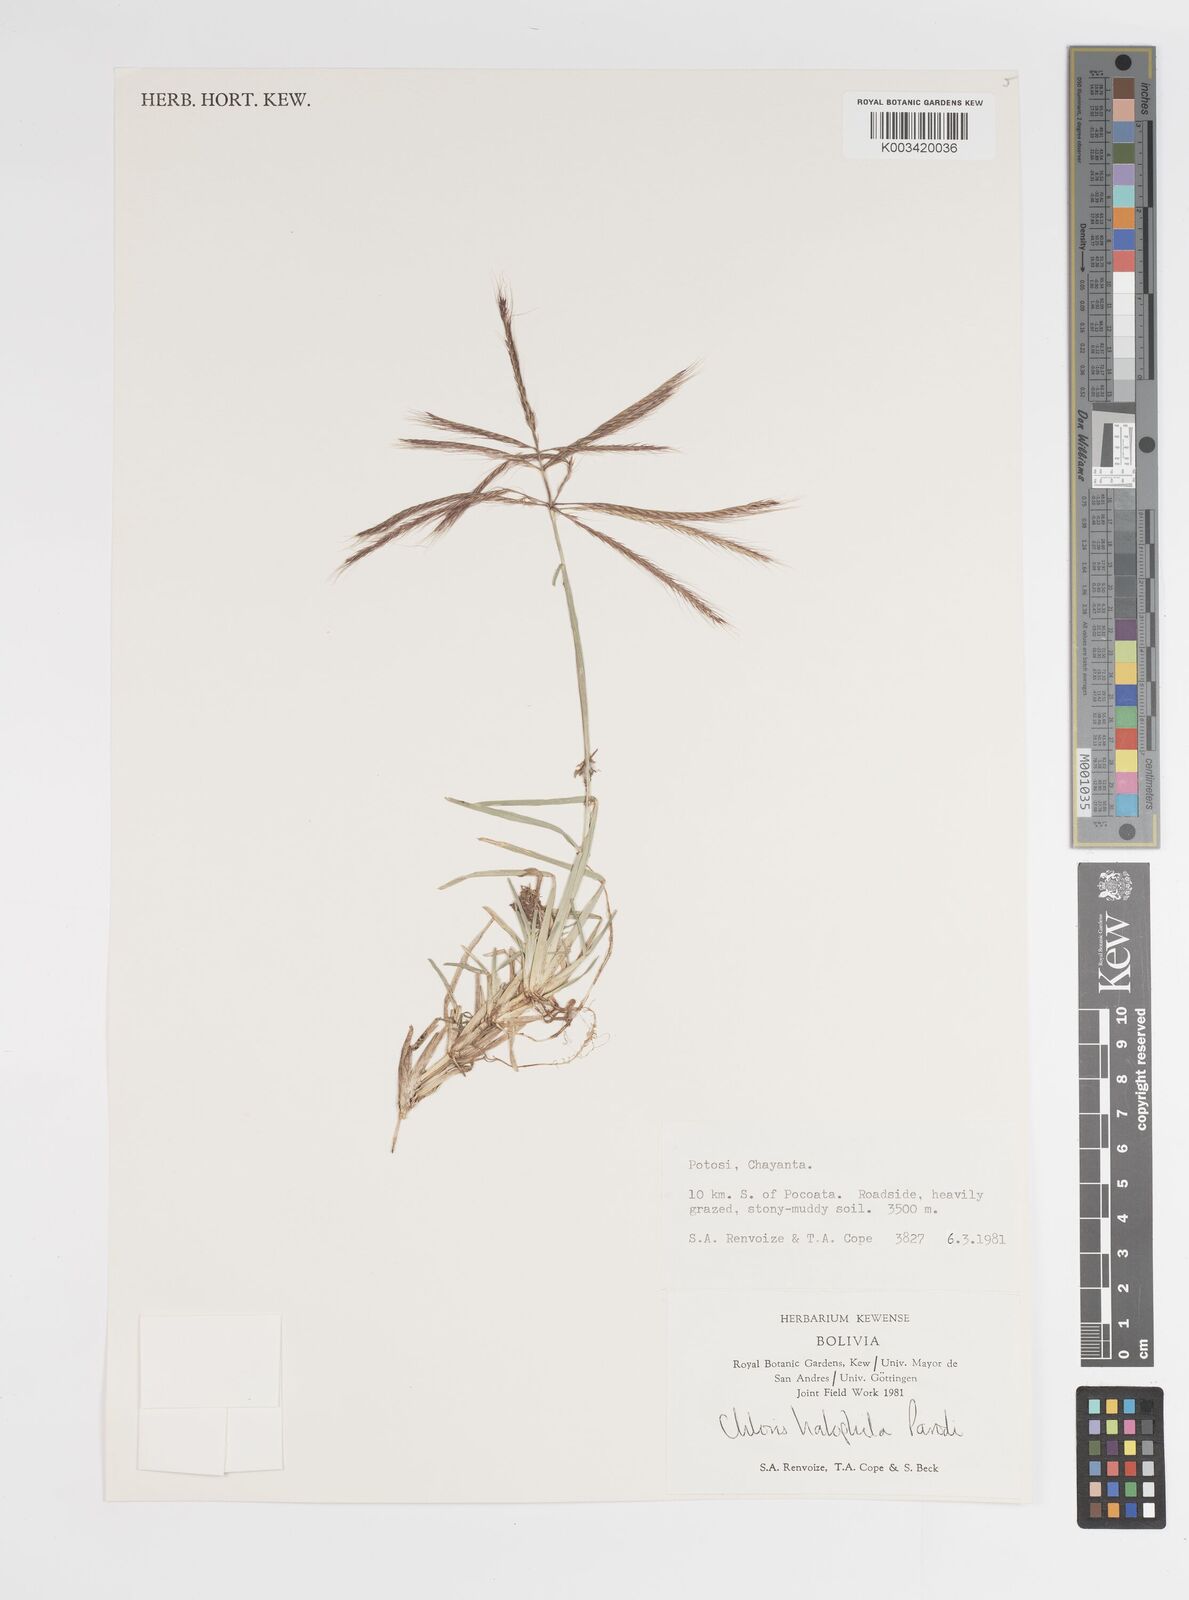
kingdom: Plantae
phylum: Tracheophyta
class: Liliopsida
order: Poales
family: Poaceae
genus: Chloris
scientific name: Chloris halophila
